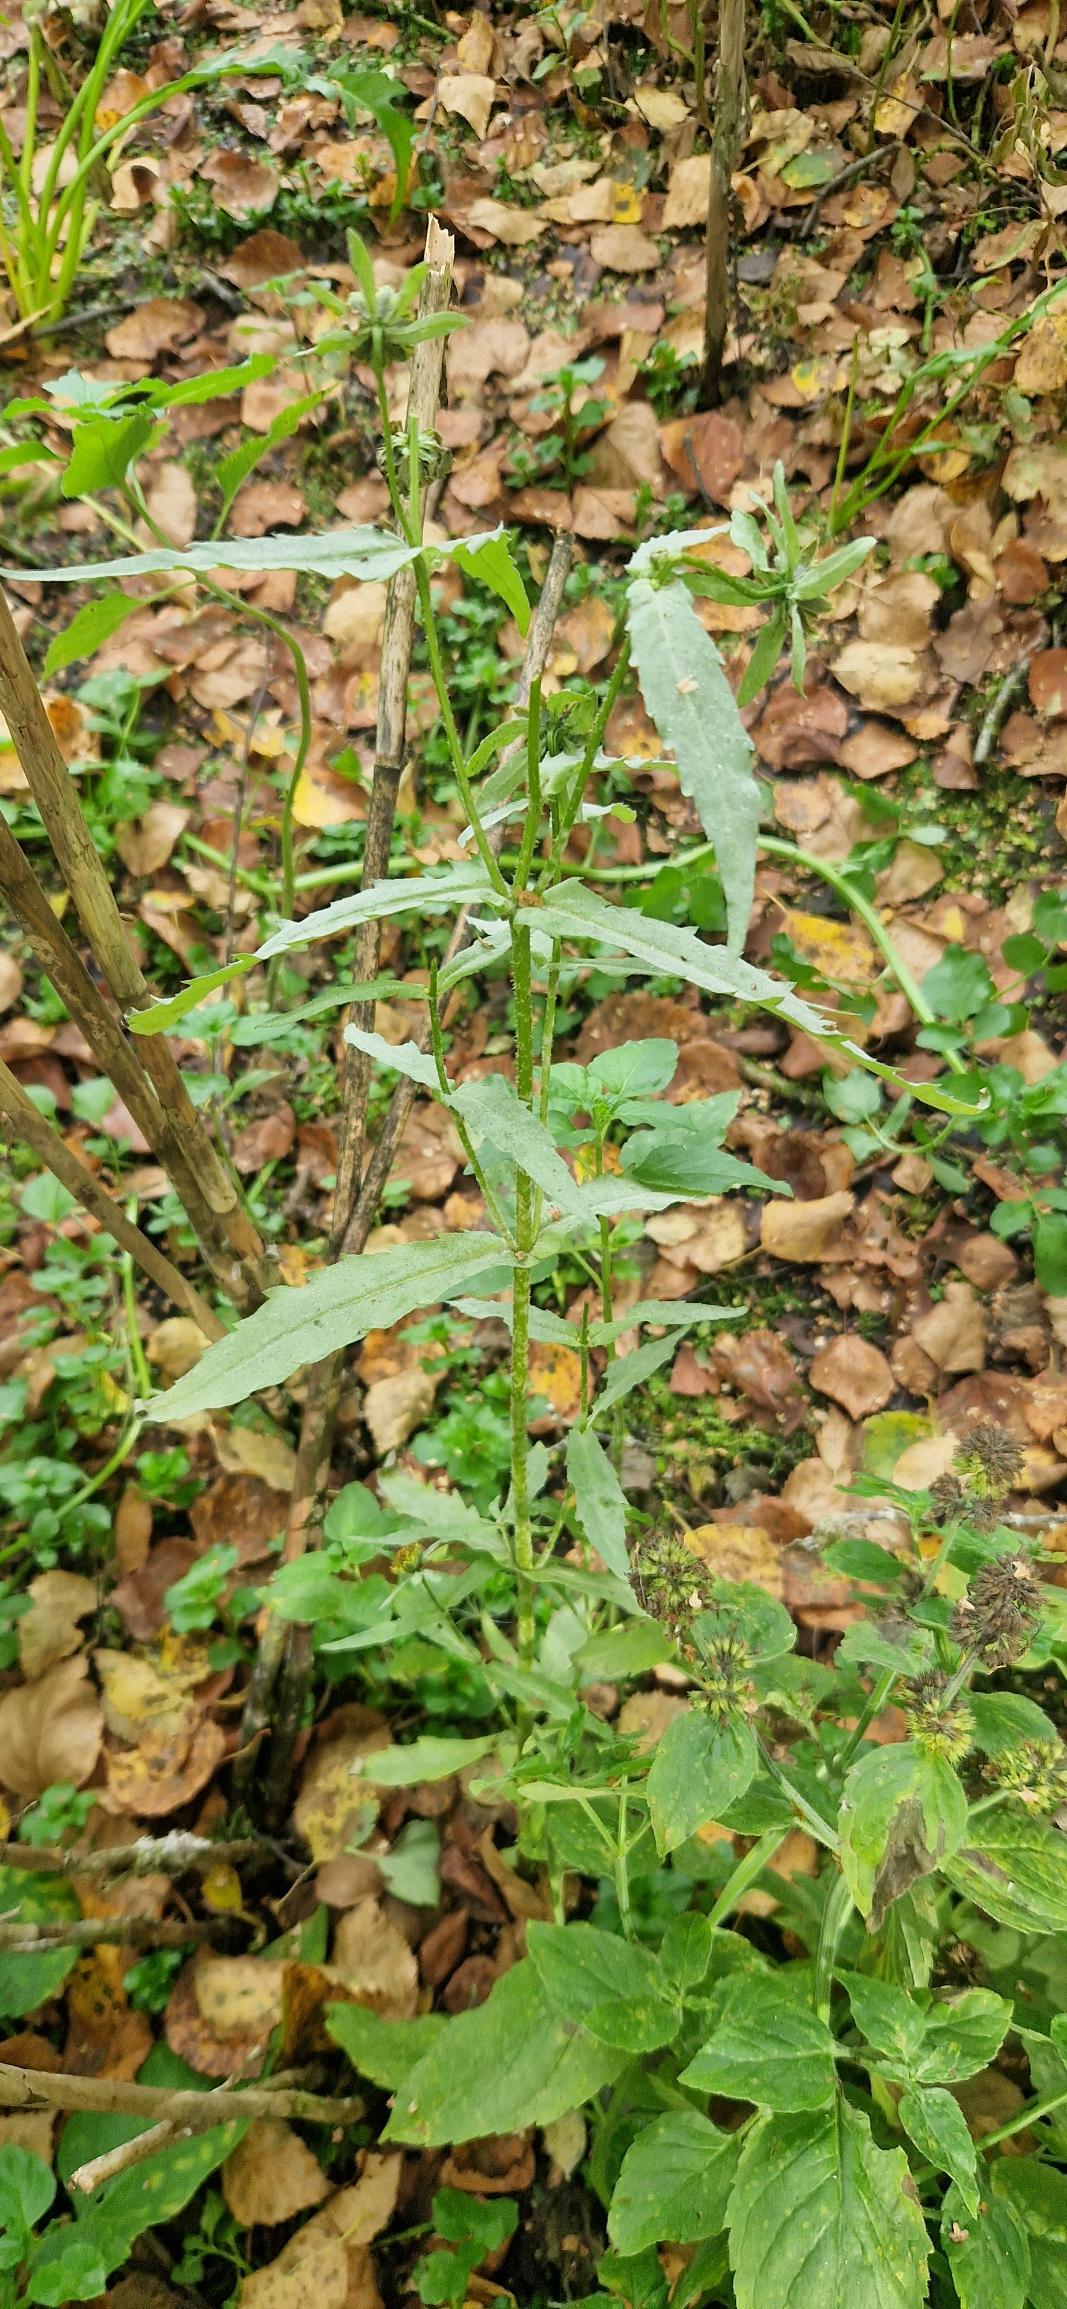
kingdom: Plantae
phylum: Tracheophyta
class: Magnoliopsida
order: Asterales
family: Asteraceae
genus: Bidens
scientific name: Bidens cernua
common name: Nikkende brøndsel
